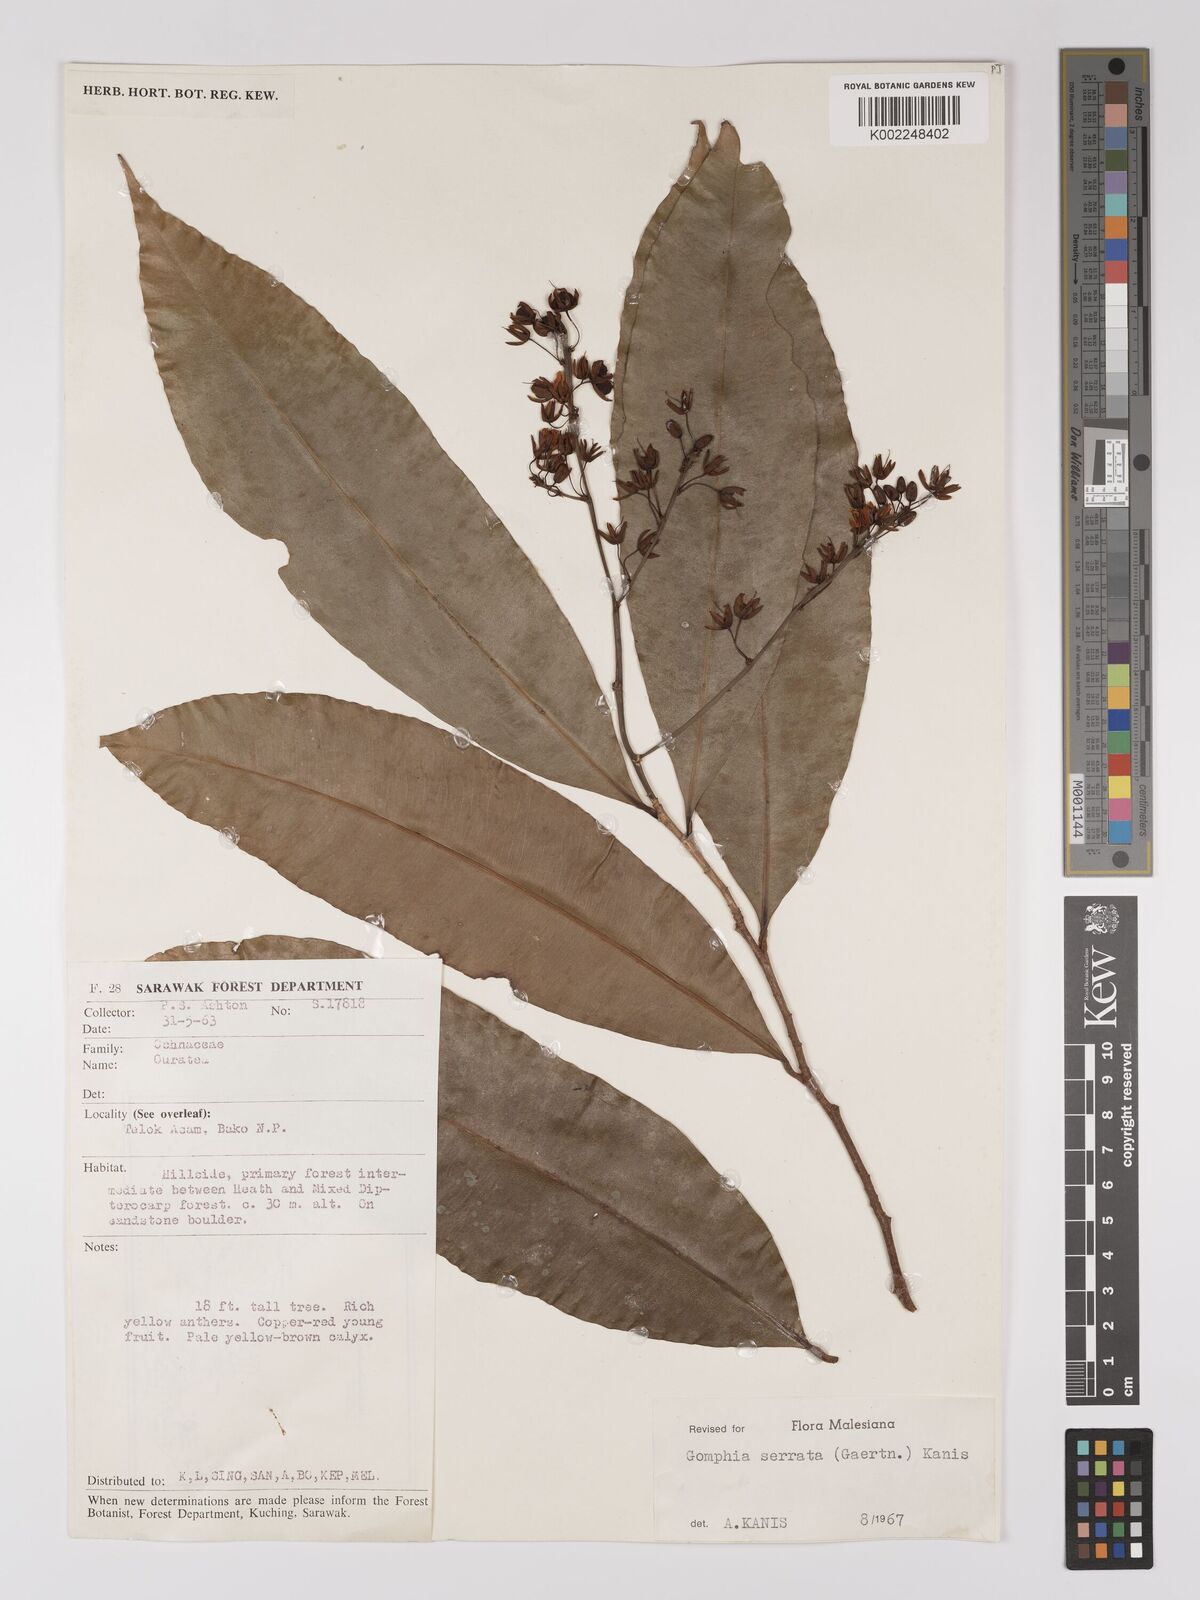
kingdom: Plantae
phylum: Tracheophyta
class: Magnoliopsida
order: Malpighiales
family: Ochnaceae
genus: Gomphia
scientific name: Gomphia serrata
